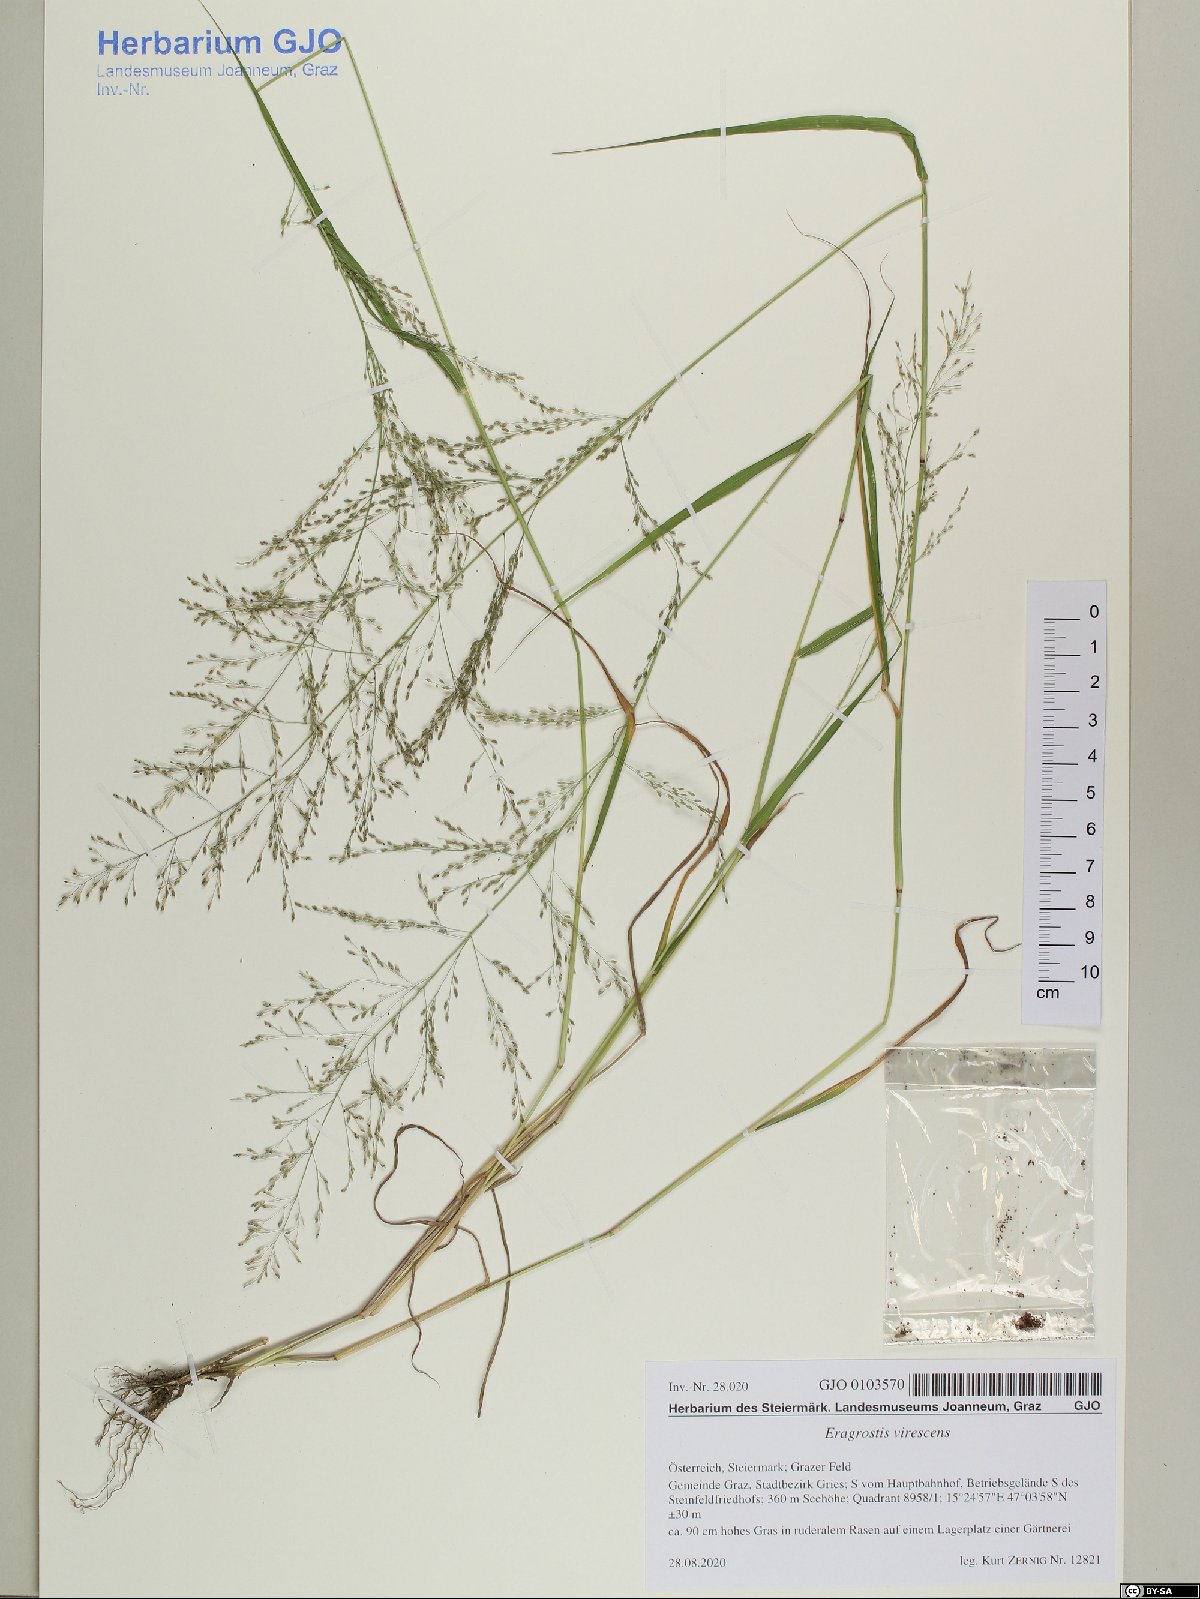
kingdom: Plantae
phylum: Tracheophyta
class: Liliopsida
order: Poales
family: Poaceae
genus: Eragrostis
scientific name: Eragrostis virescens
